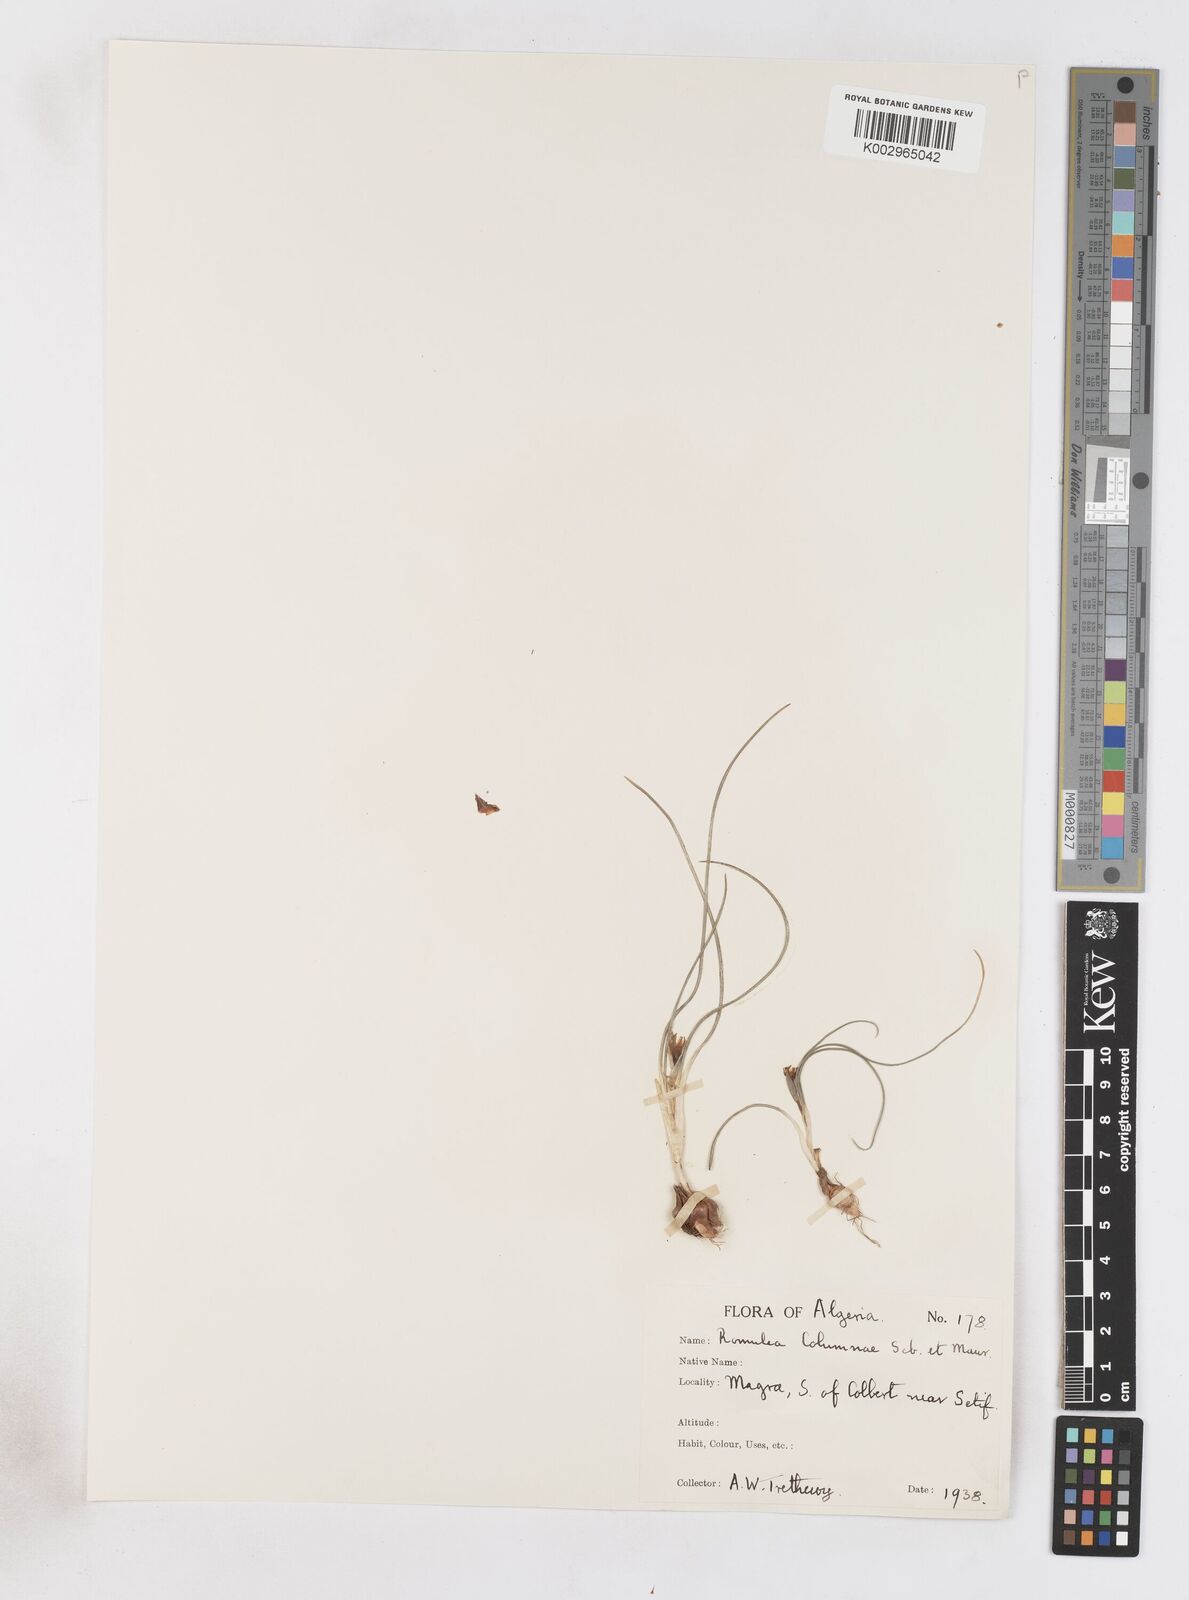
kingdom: Plantae
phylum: Tracheophyta
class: Liliopsida
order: Asparagales
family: Iridaceae
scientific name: Iridaceae
